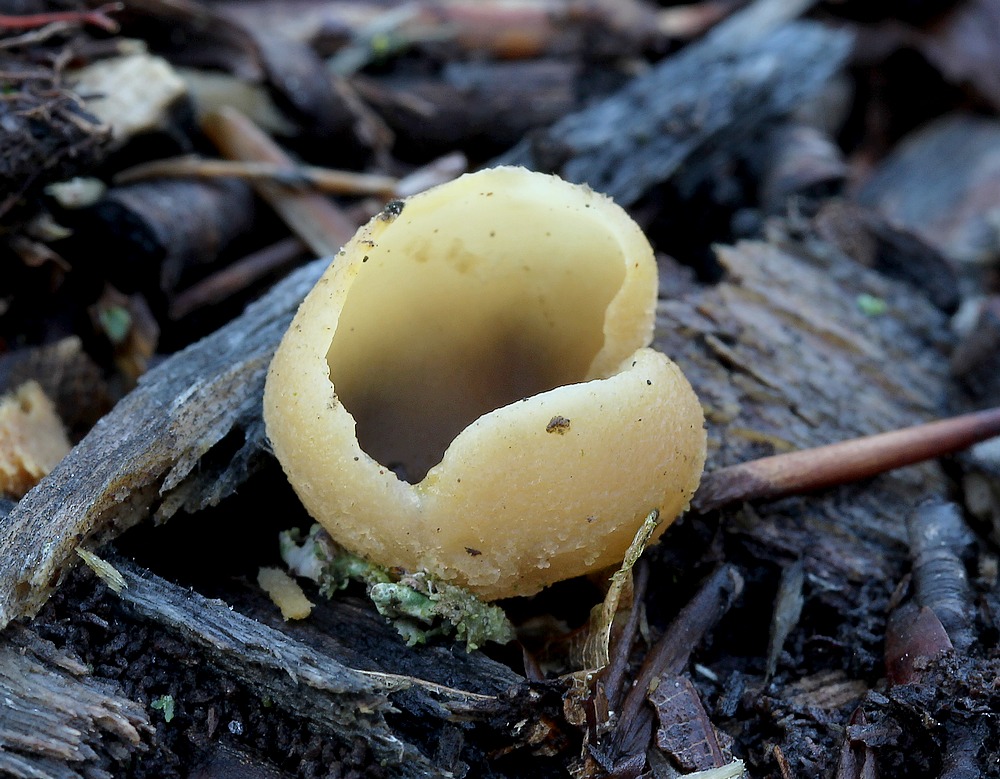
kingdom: Fungi
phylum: Ascomycota
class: Pezizomycetes
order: Pezizales
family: Pezizaceae
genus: Peziza
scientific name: Peziza
